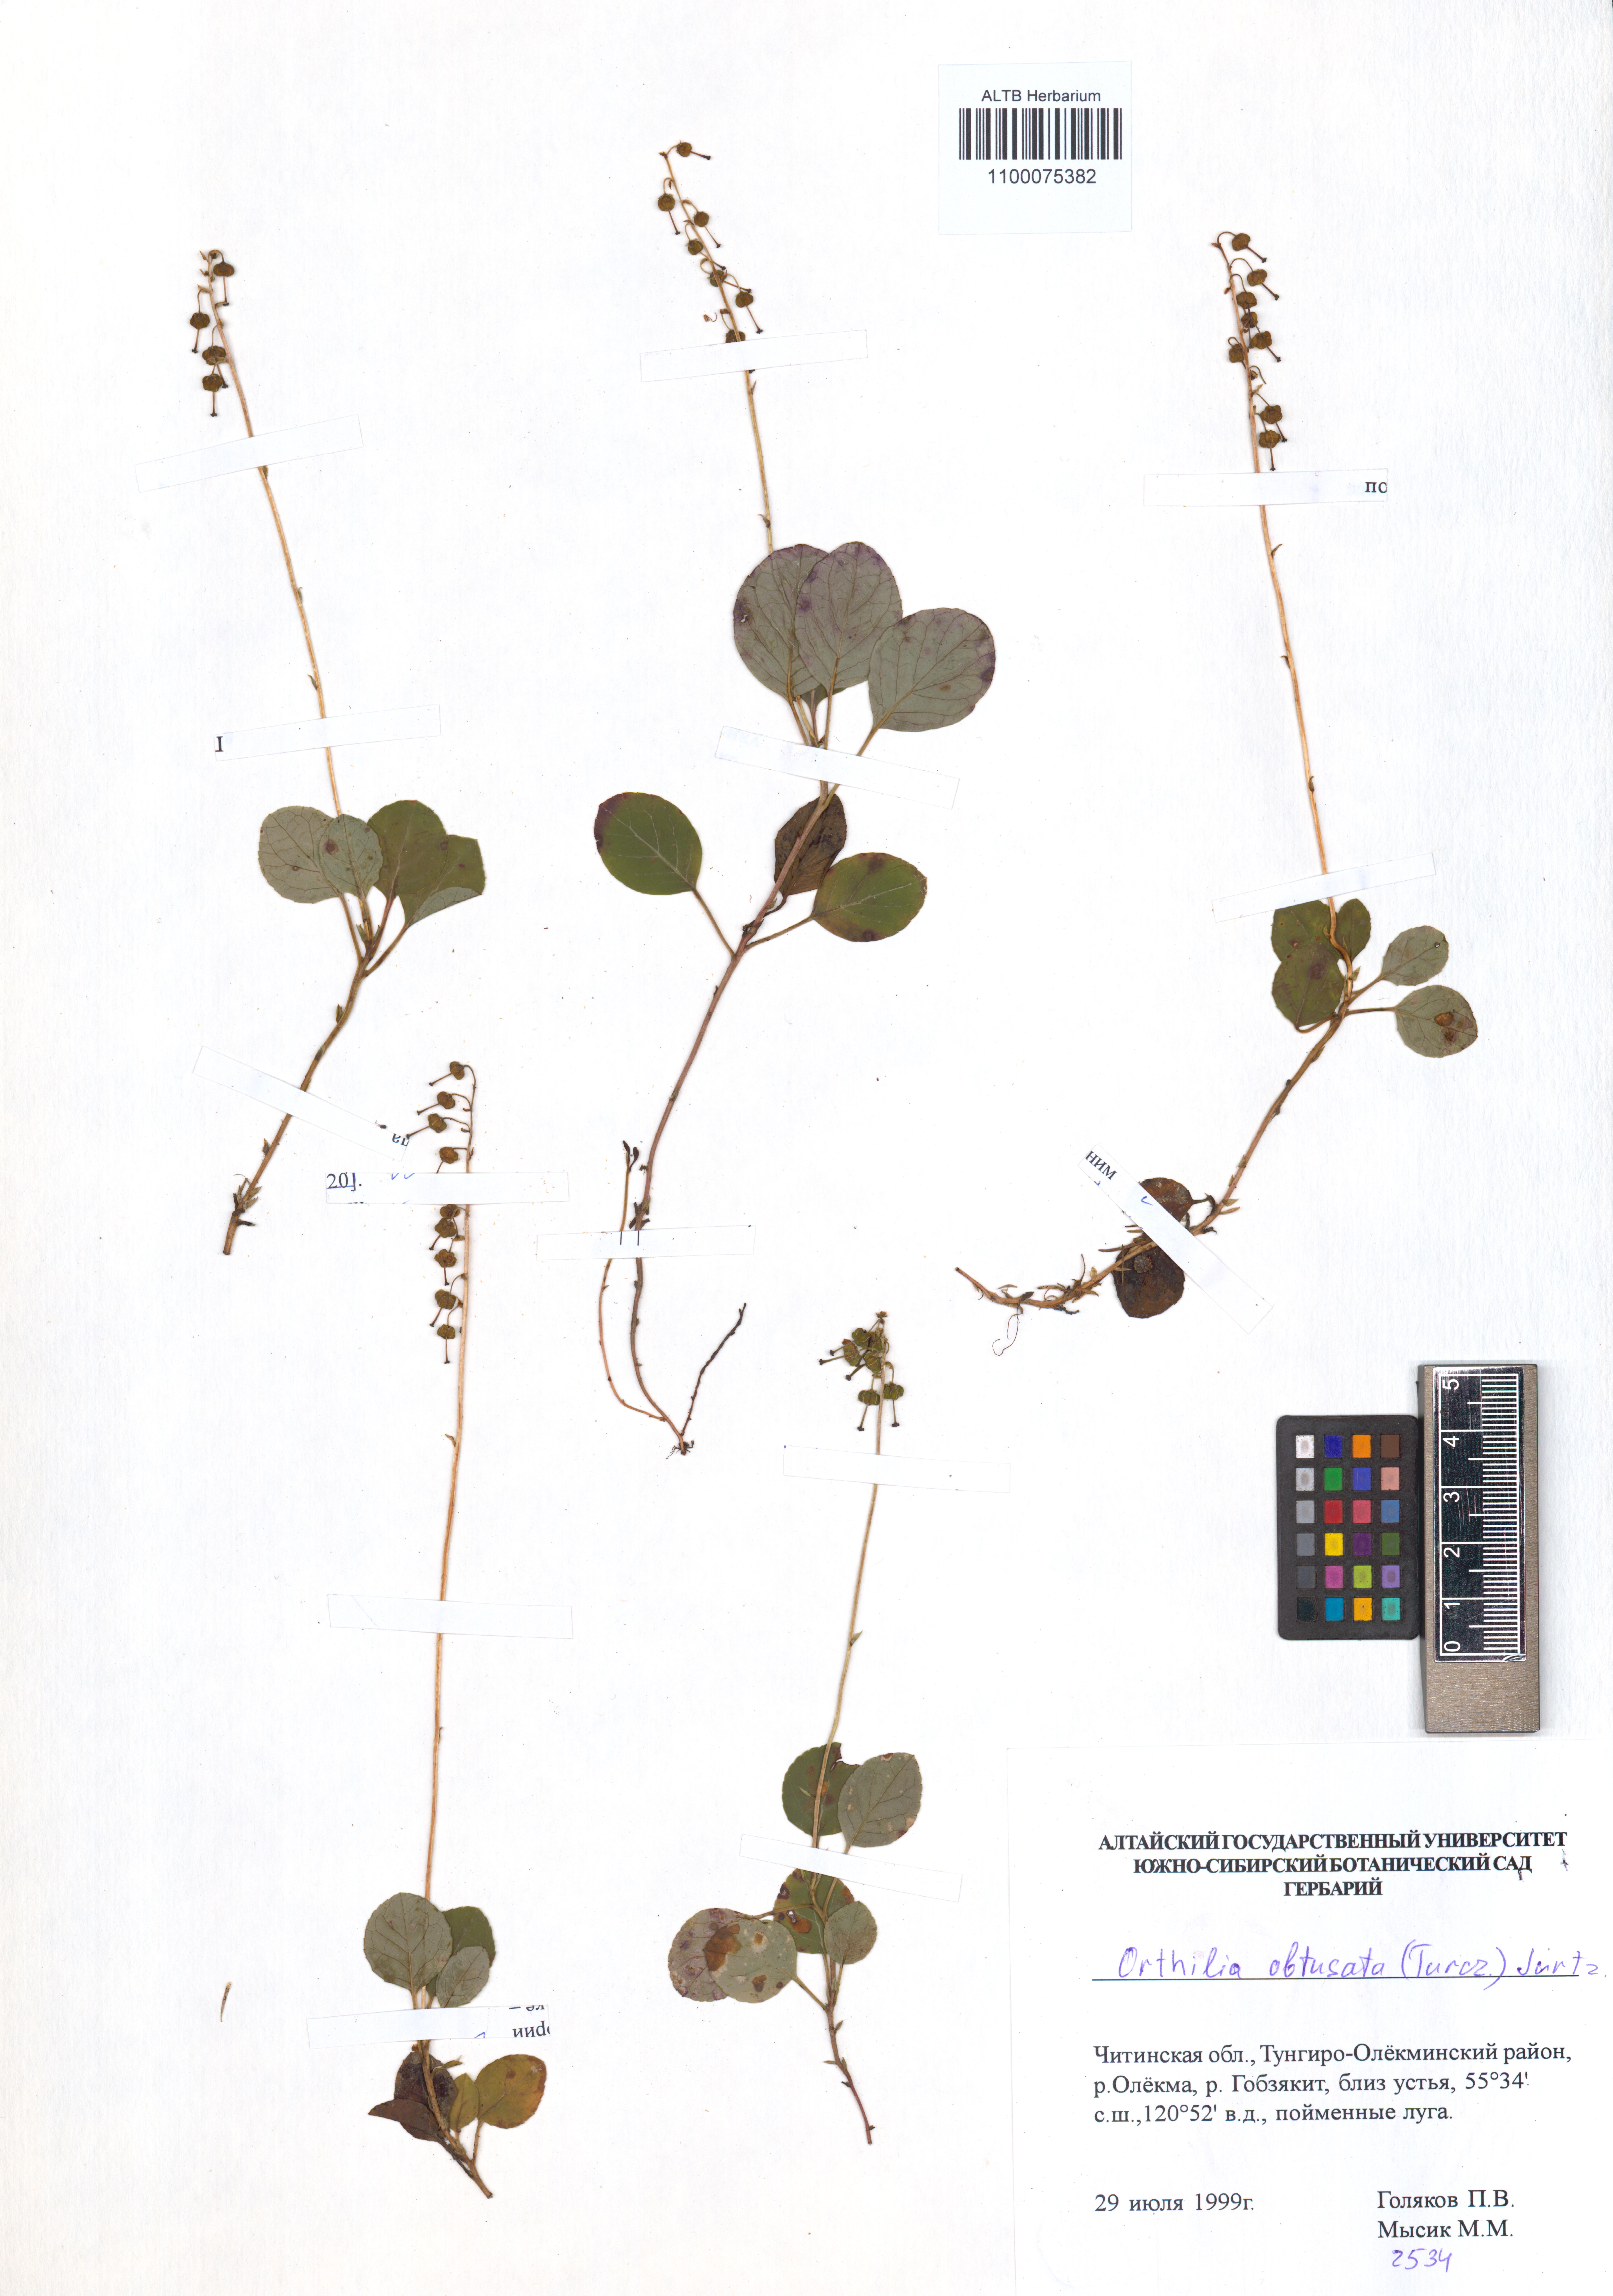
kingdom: Plantae
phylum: Tracheophyta
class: Magnoliopsida
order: Ericales
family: Ericaceae
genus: Orthilia
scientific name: Orthilia secunda
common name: One-sided orthilia
